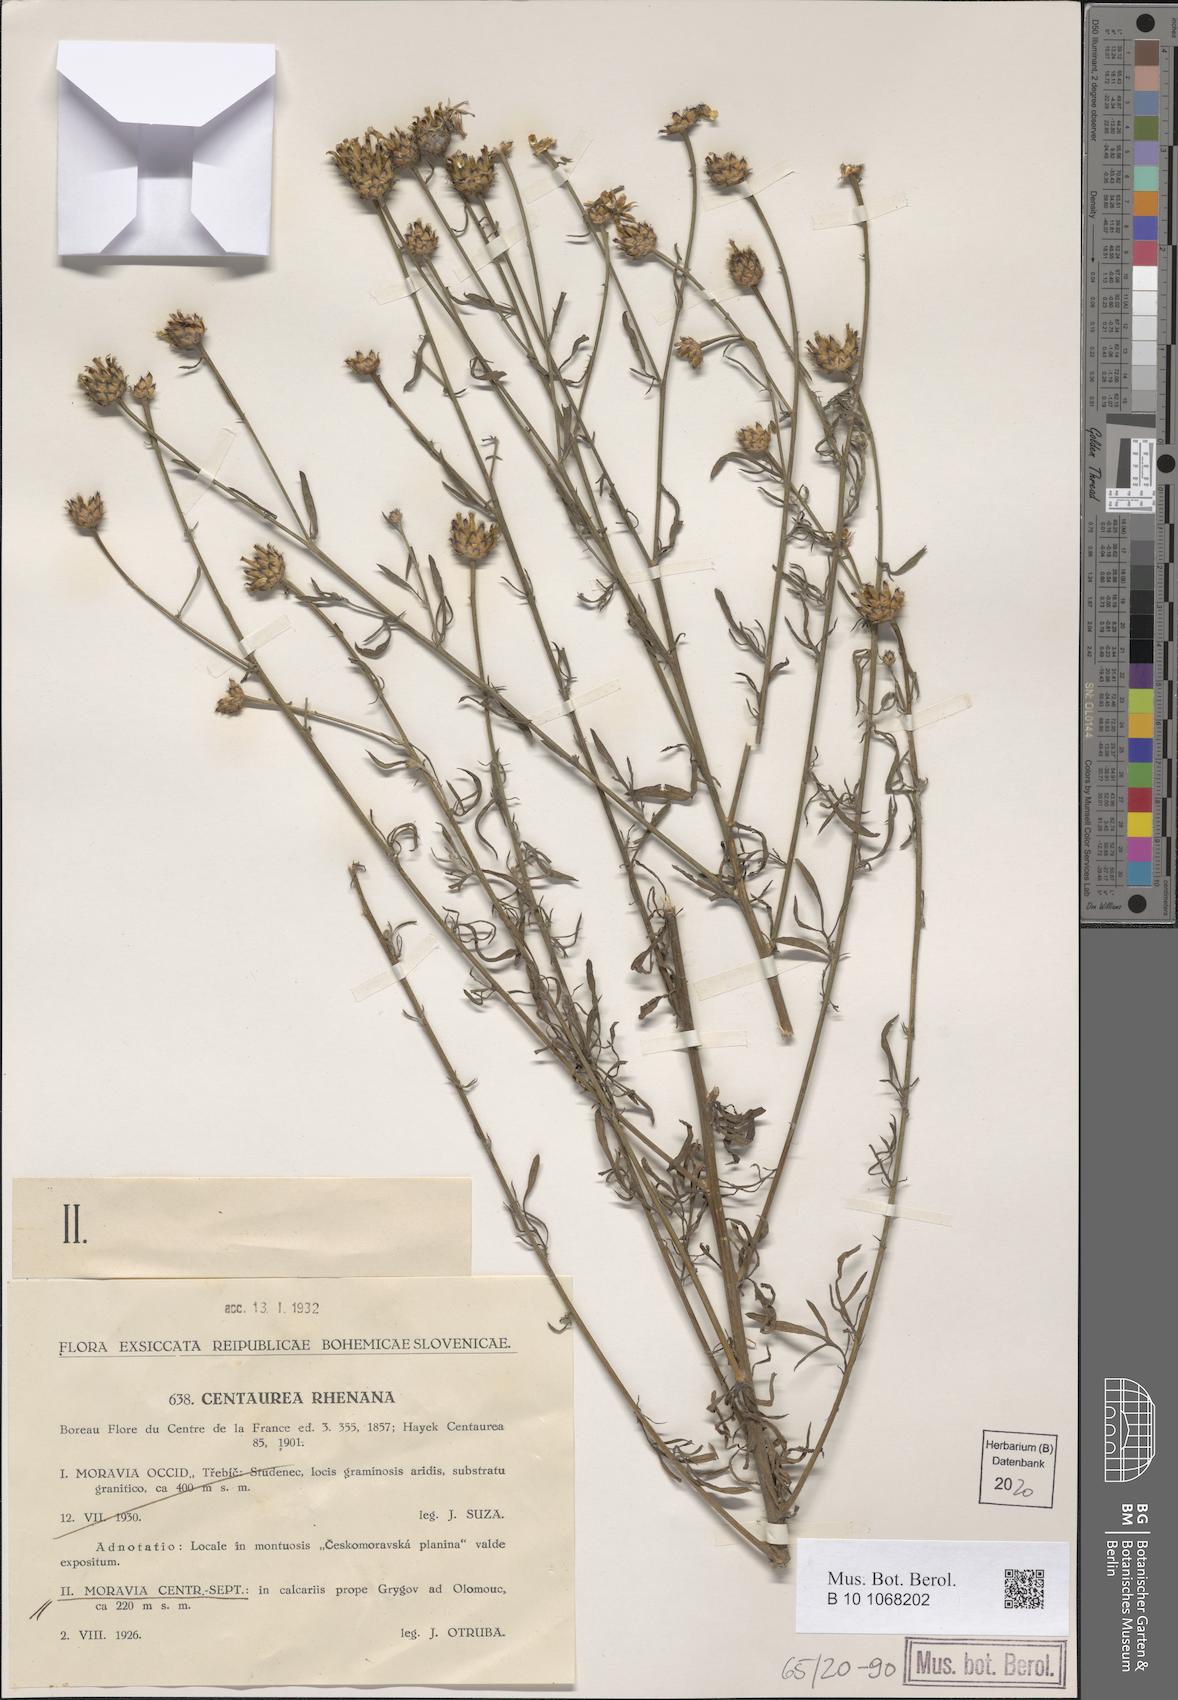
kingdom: Plantae
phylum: Tracheophyta
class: Magnoliopsida
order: Asterales
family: Asteraceae
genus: Centaurea
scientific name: Centaurea stoebe
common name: Spotted knapweed
